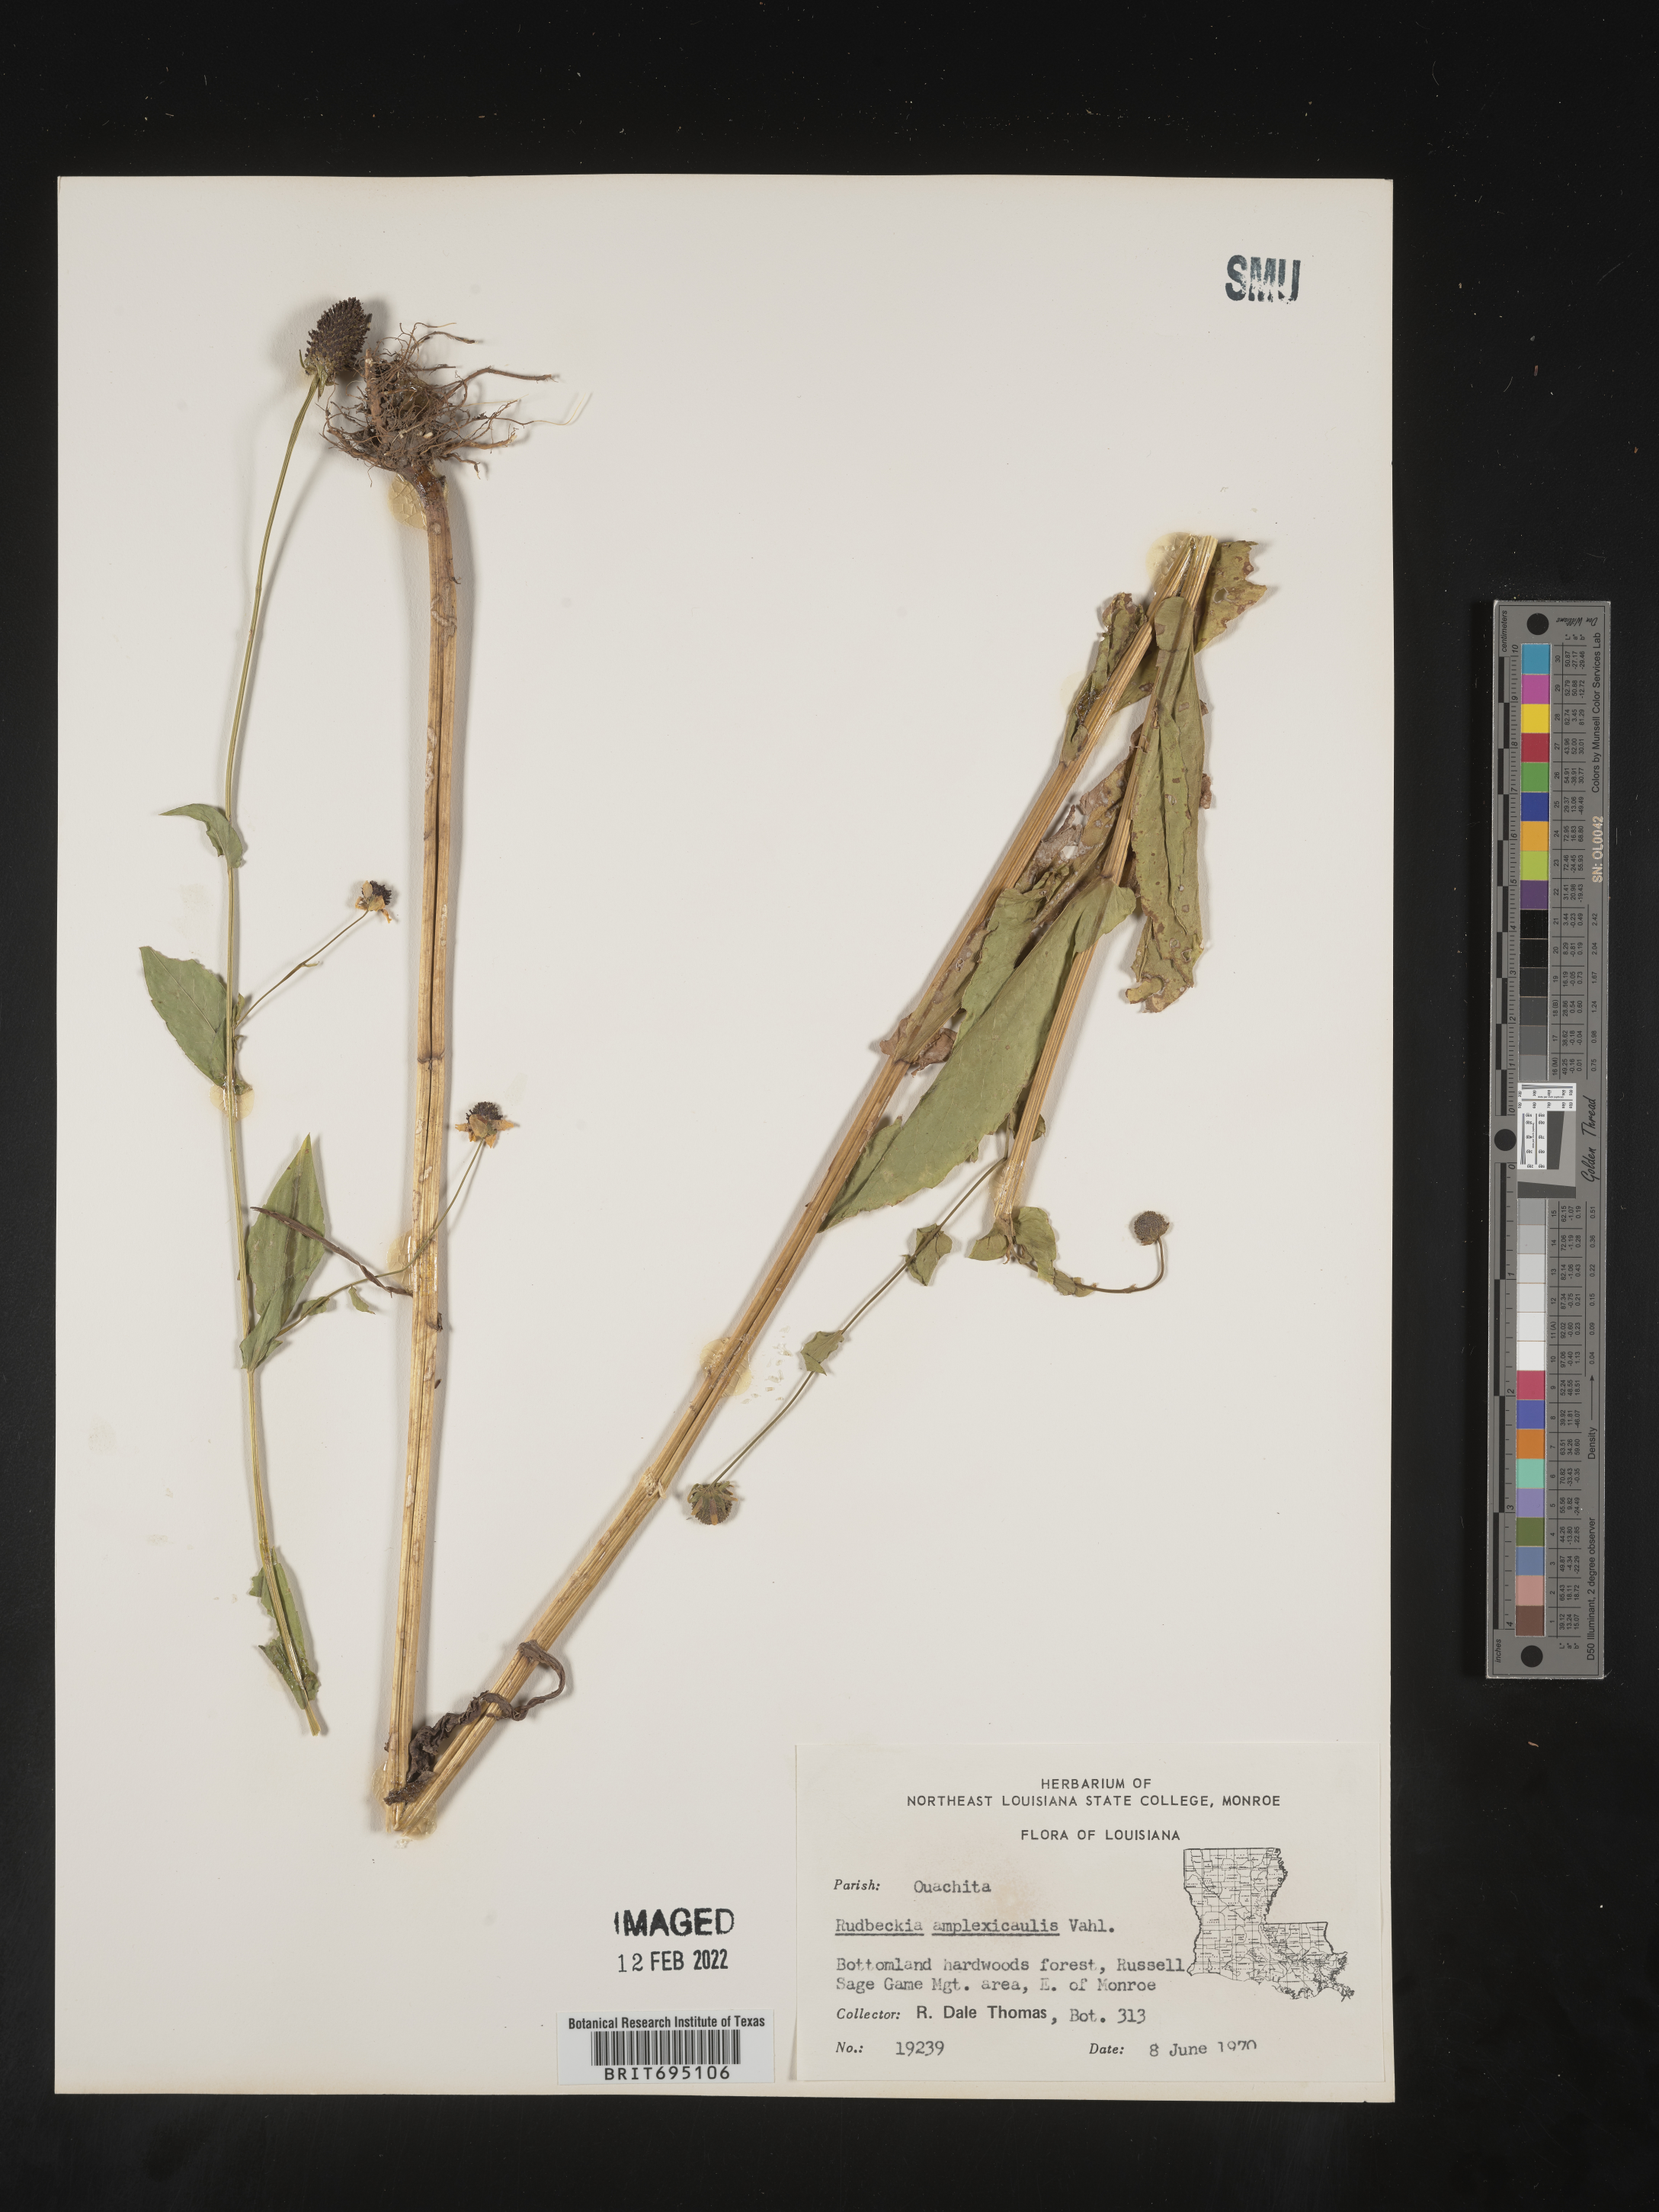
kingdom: Plantae
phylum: Tracheophyta
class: Magnoliopsida
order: Asterales
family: Asteraceae
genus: Rudbeckia
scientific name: Rudbeckia amplexicaulis
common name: Clasping-leaf coneflower
